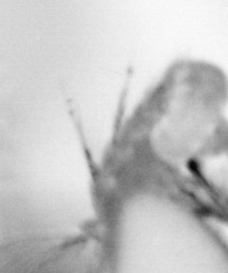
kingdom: Animalia
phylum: Arthropoda
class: Copepoda
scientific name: Copepoda
